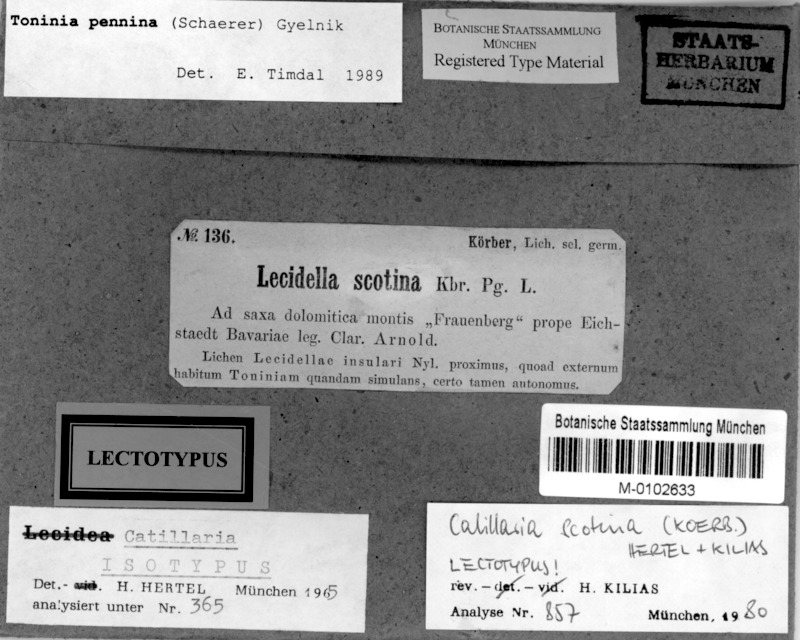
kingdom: Fungi
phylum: Ascomycota
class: Lecanoromycetes
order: Lecanorales
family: Ramalinaceae
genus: Kiliasia
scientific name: Kiliasia pennina
